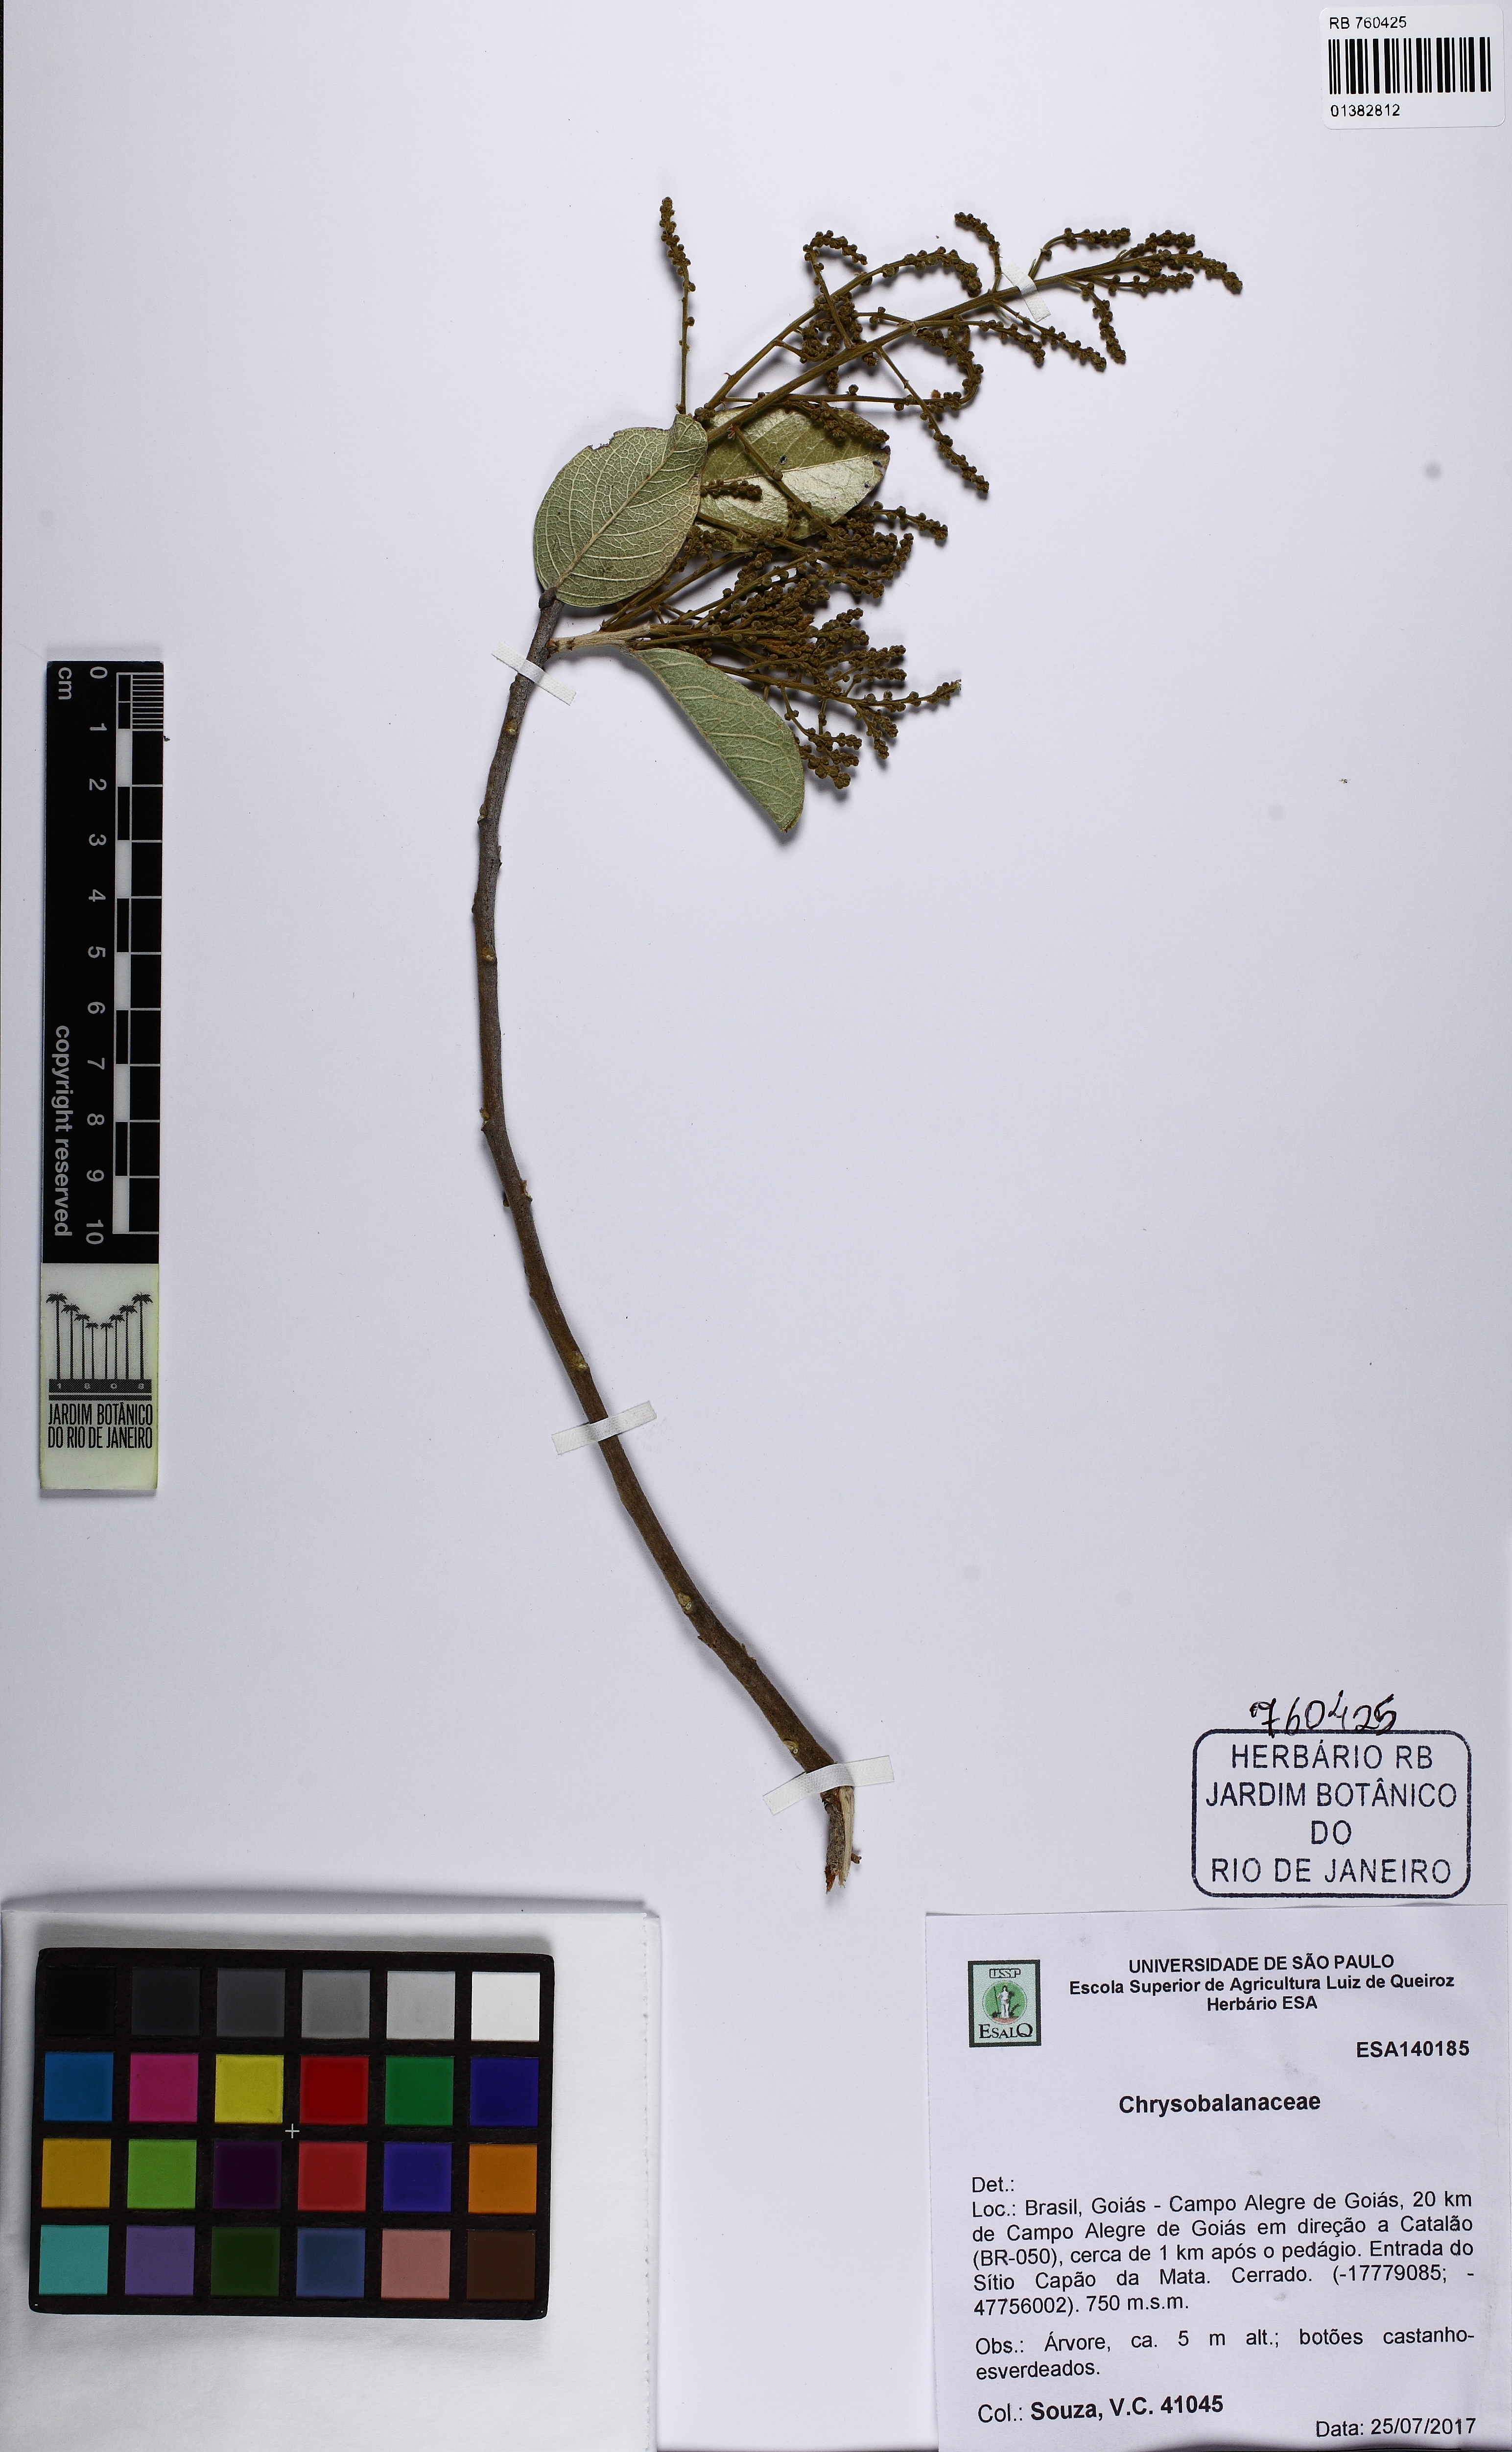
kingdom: Plantae
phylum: Tracheophyta
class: Magnoliopsida
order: Malpighiales
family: Chrysobalanaceae
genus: Leptobalanus
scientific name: Leptobalanus humilis
